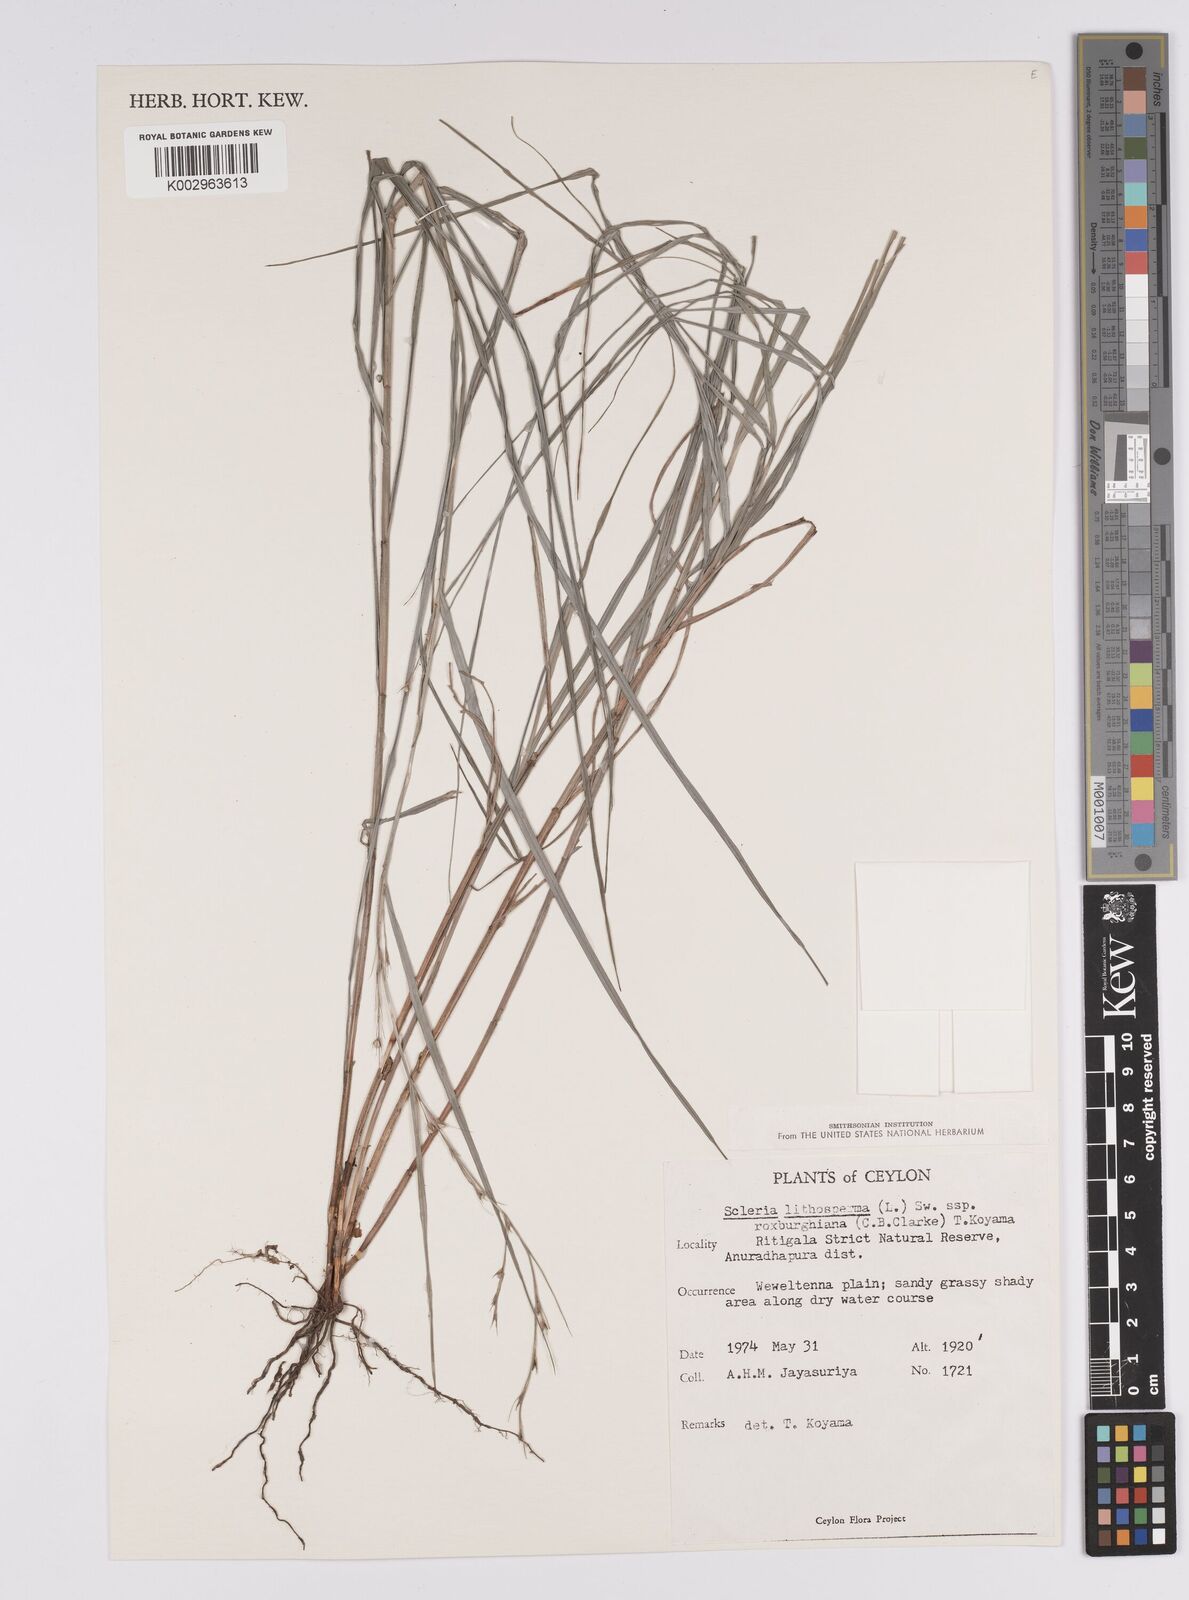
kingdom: Plantae
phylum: Tracheophyta
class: Liliopsida
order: Poales
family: Cyperaceae
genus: Scleria
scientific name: Scleria lithosperma
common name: Florida keys nut-rush
